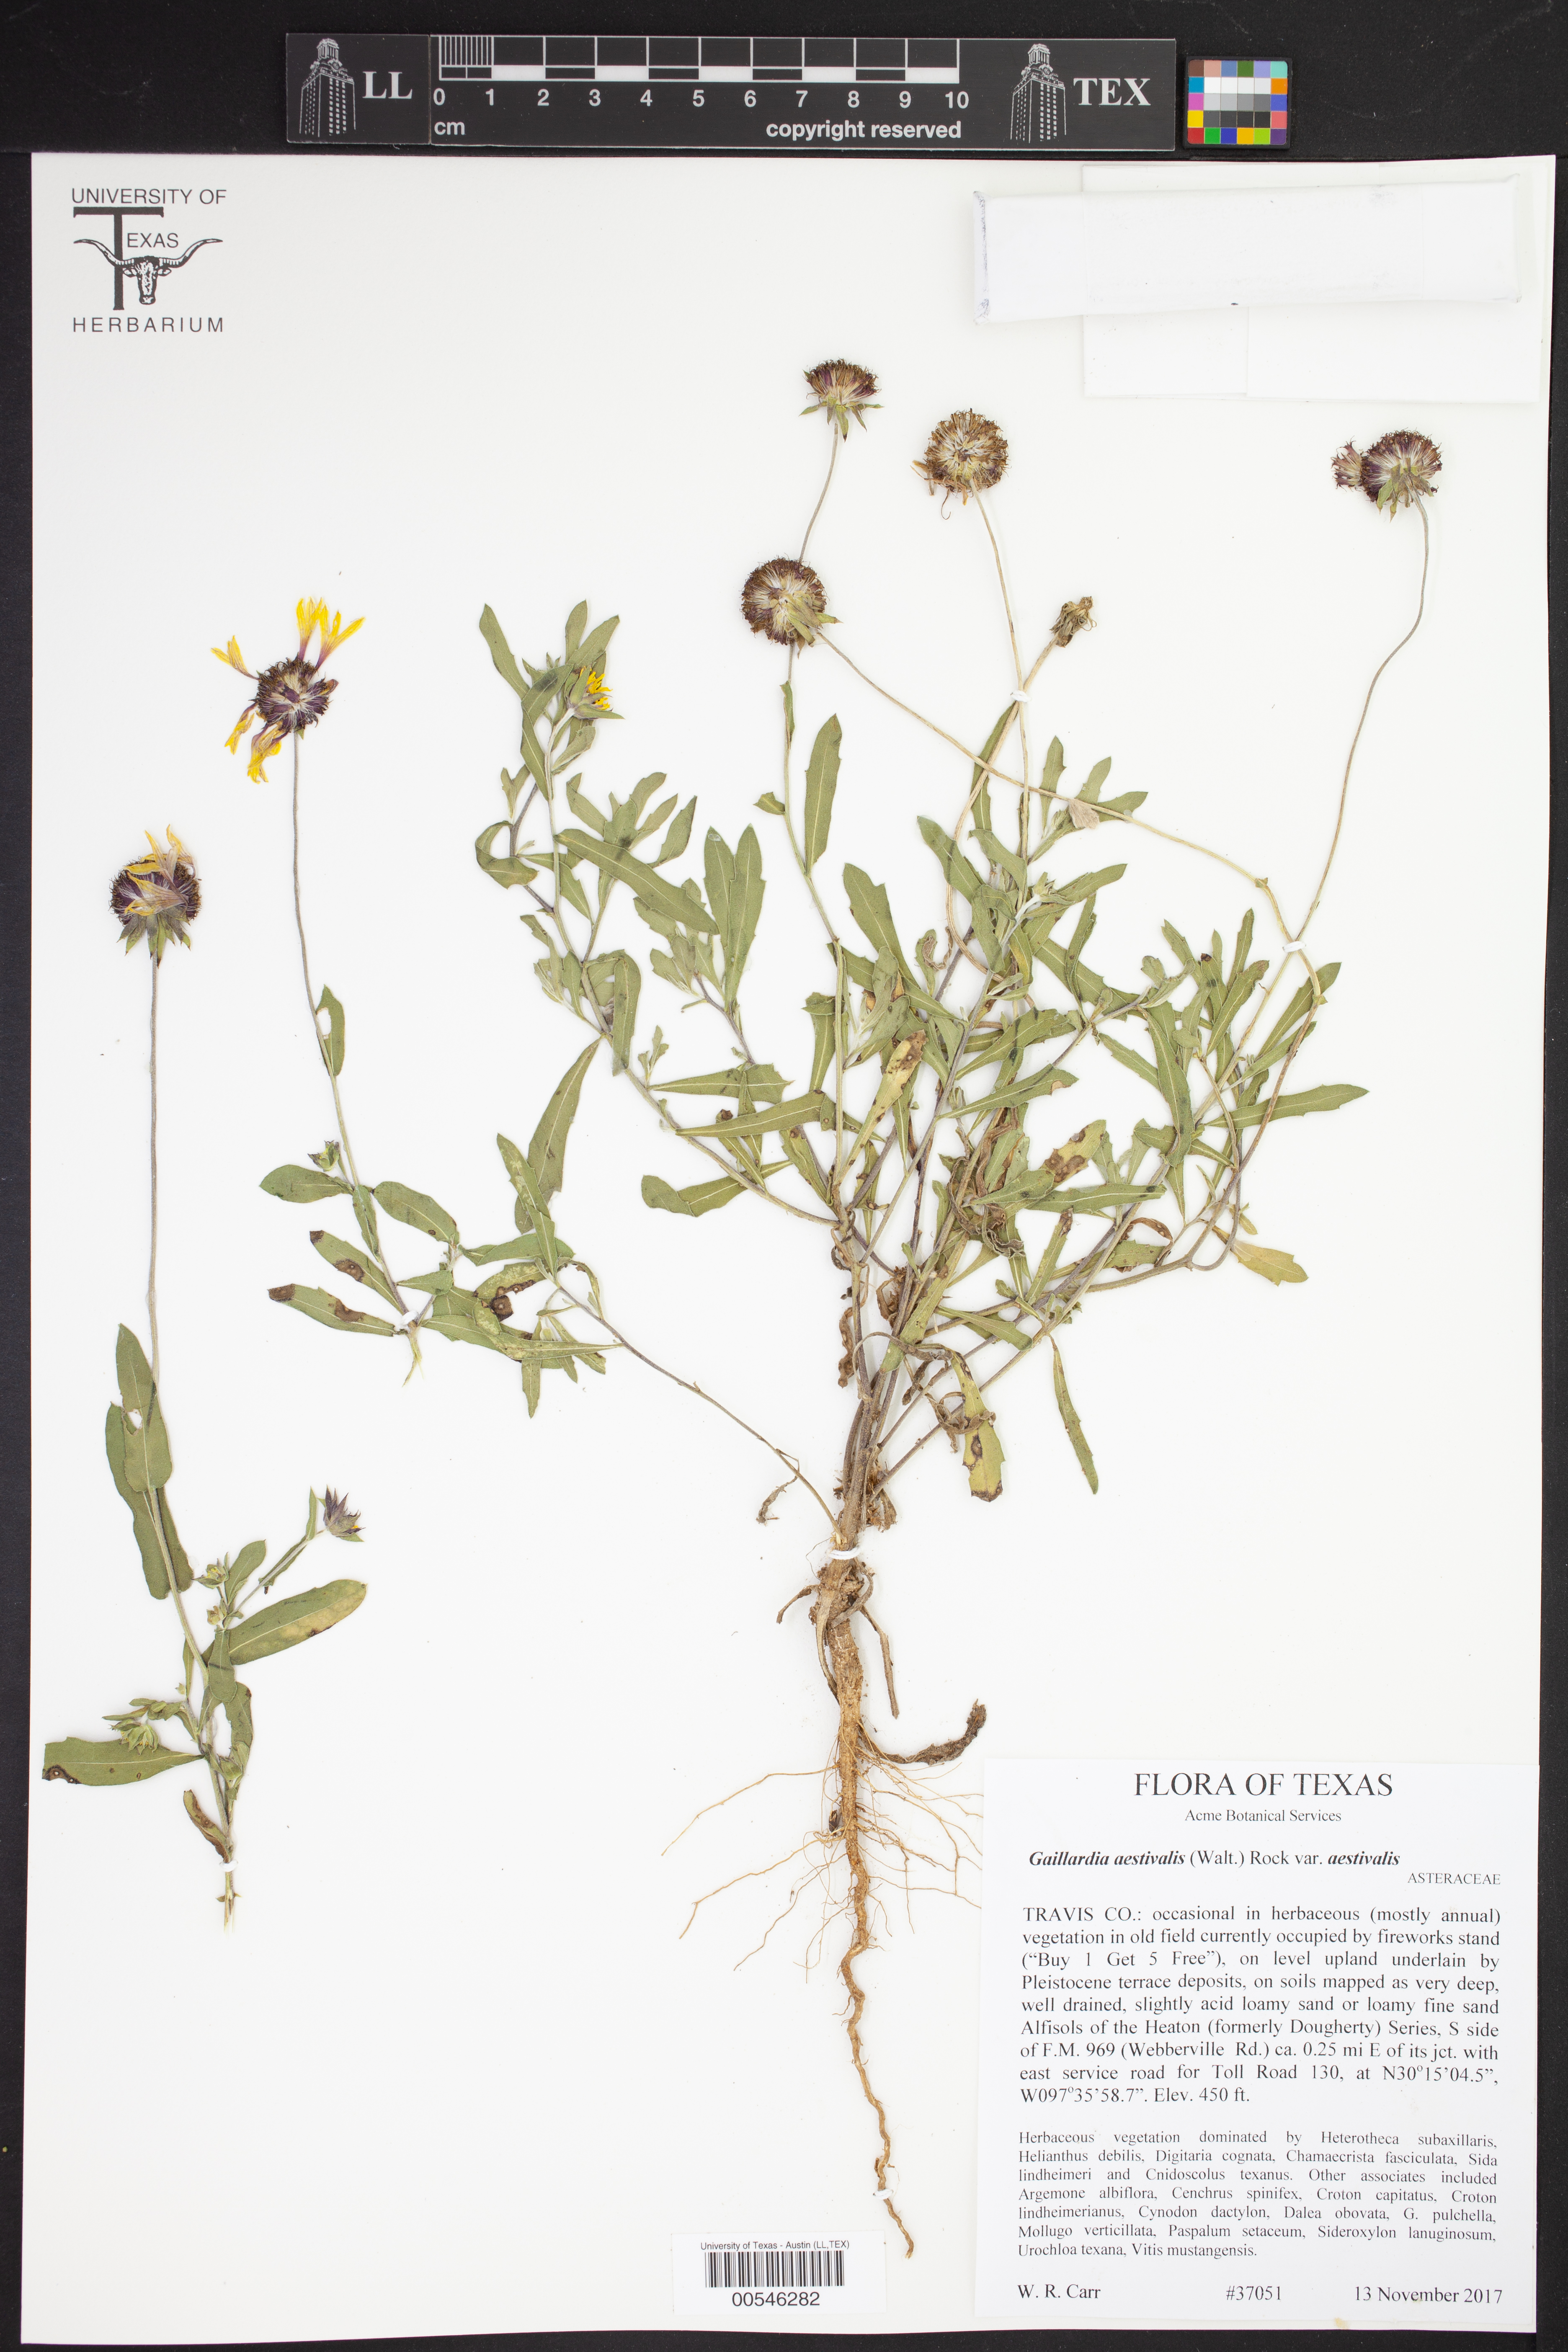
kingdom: Plantae
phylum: Tracheophyta
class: Magnoliopsida
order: Asterales
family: Asteraceae
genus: Gaillardia
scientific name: Gaillardia aestivalis
